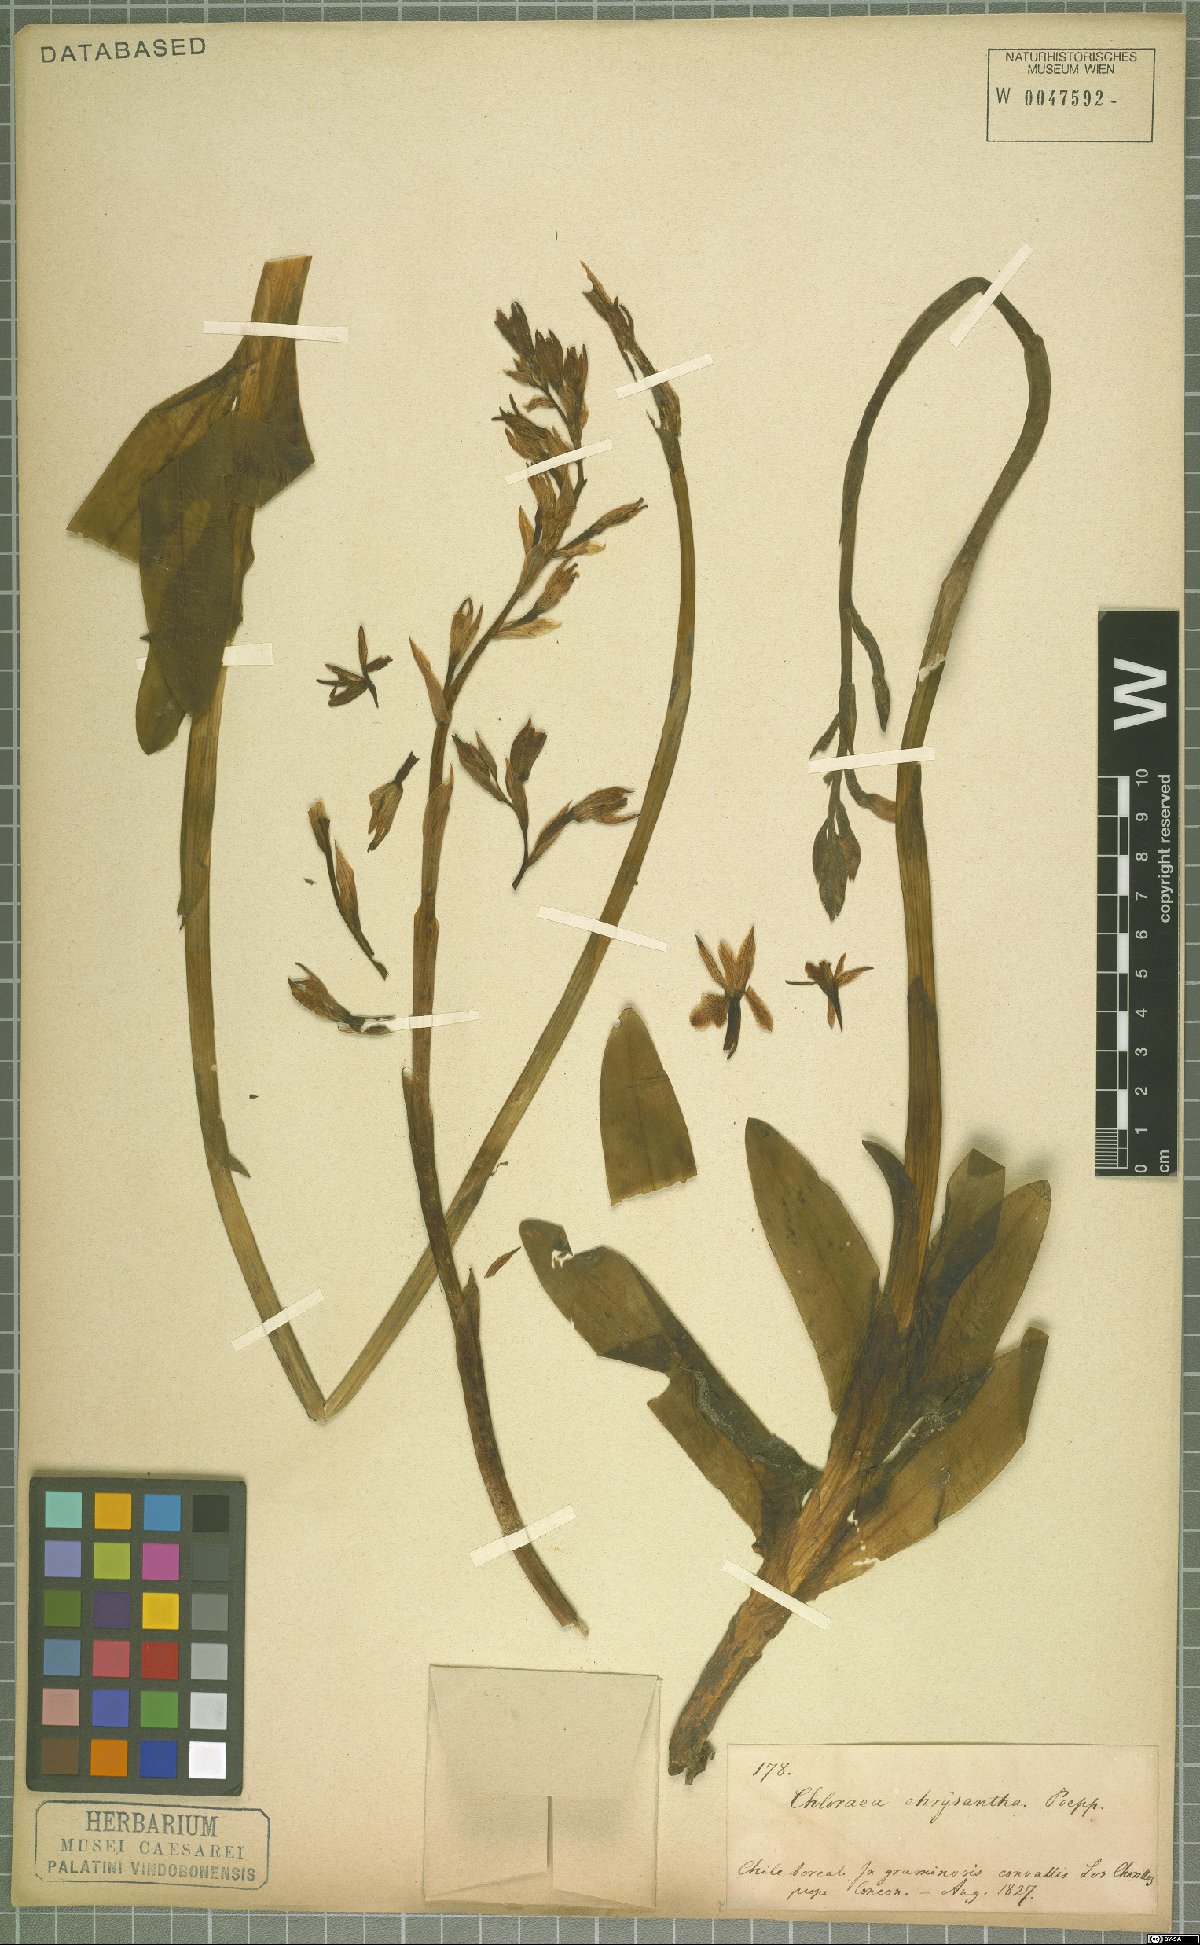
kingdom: Plantae
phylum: Tracheophyta
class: Liliopsida
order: Asparagales
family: Orchidaceae
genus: Chloraea
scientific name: Chloraea chrysantha
